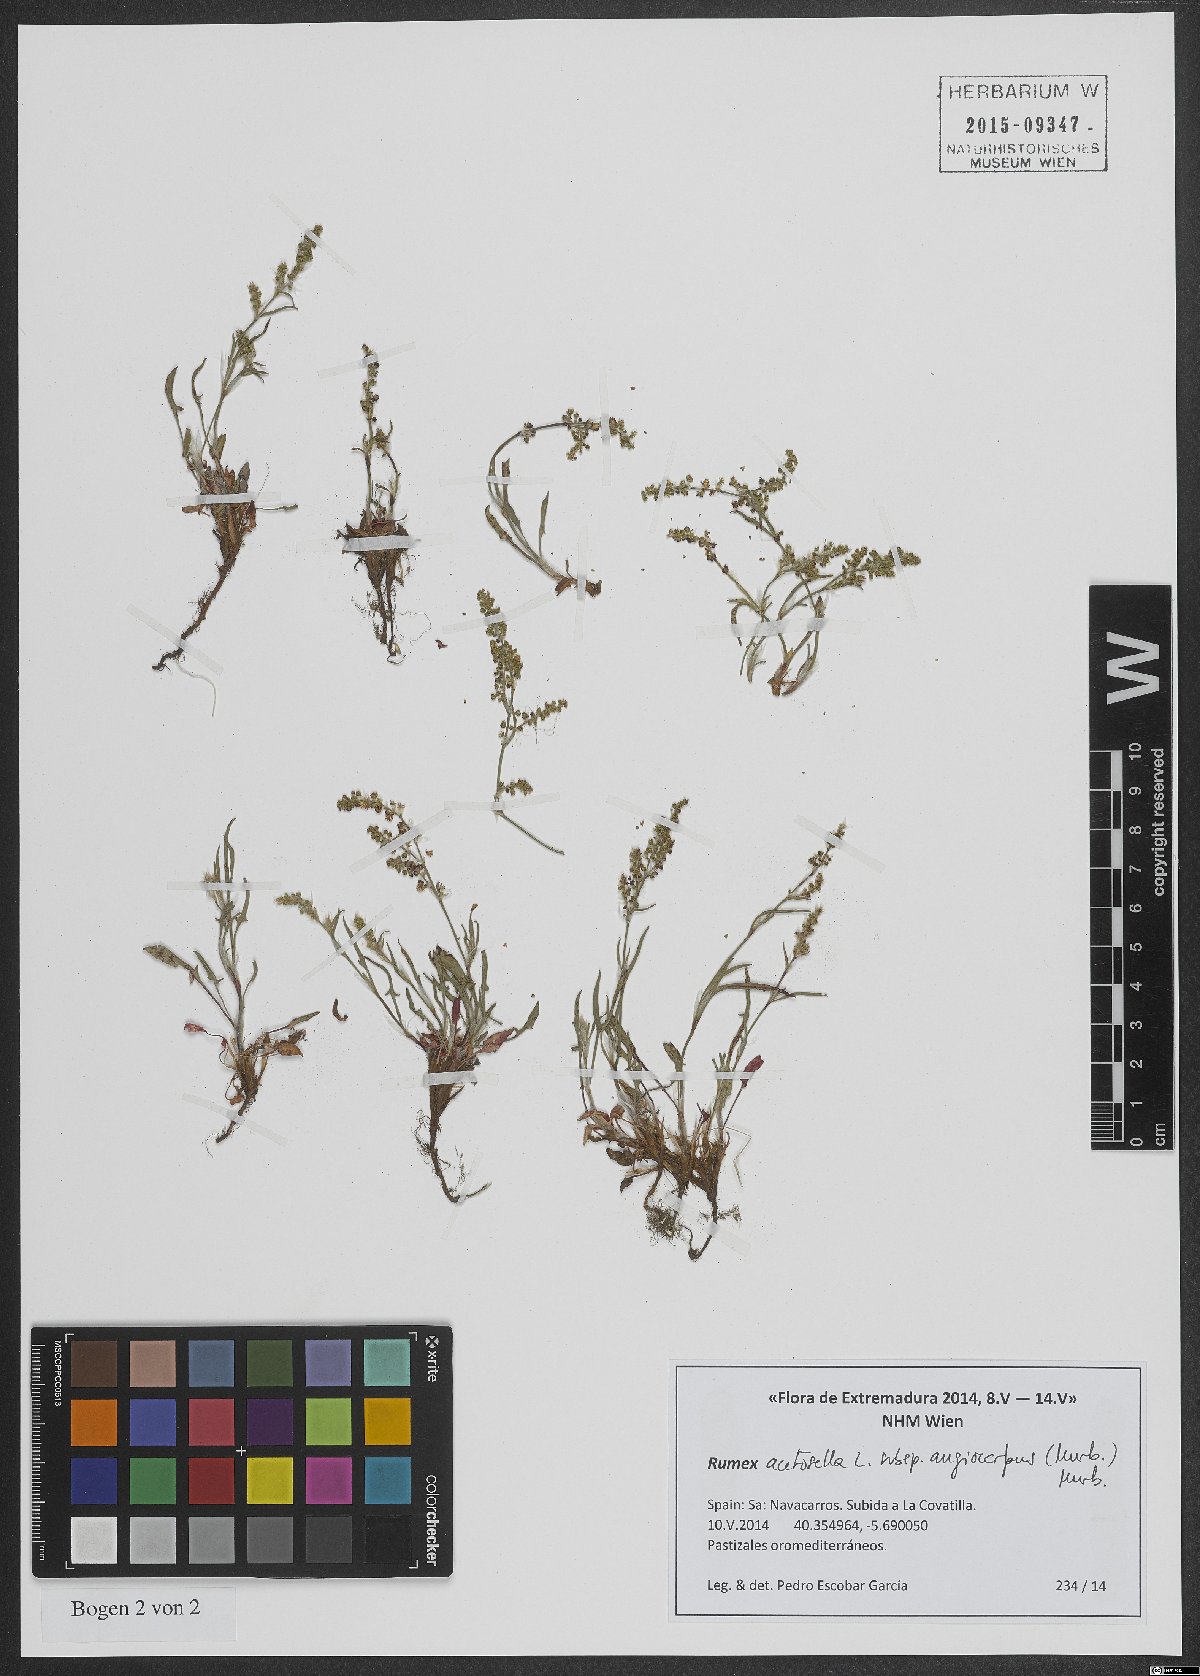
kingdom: Plantae
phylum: Tracheophyta
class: Magnoliopsida
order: Caryophyllales
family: Polygonaceae
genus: Rumex
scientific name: Rumex acetosella
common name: Common sheep sorrel
